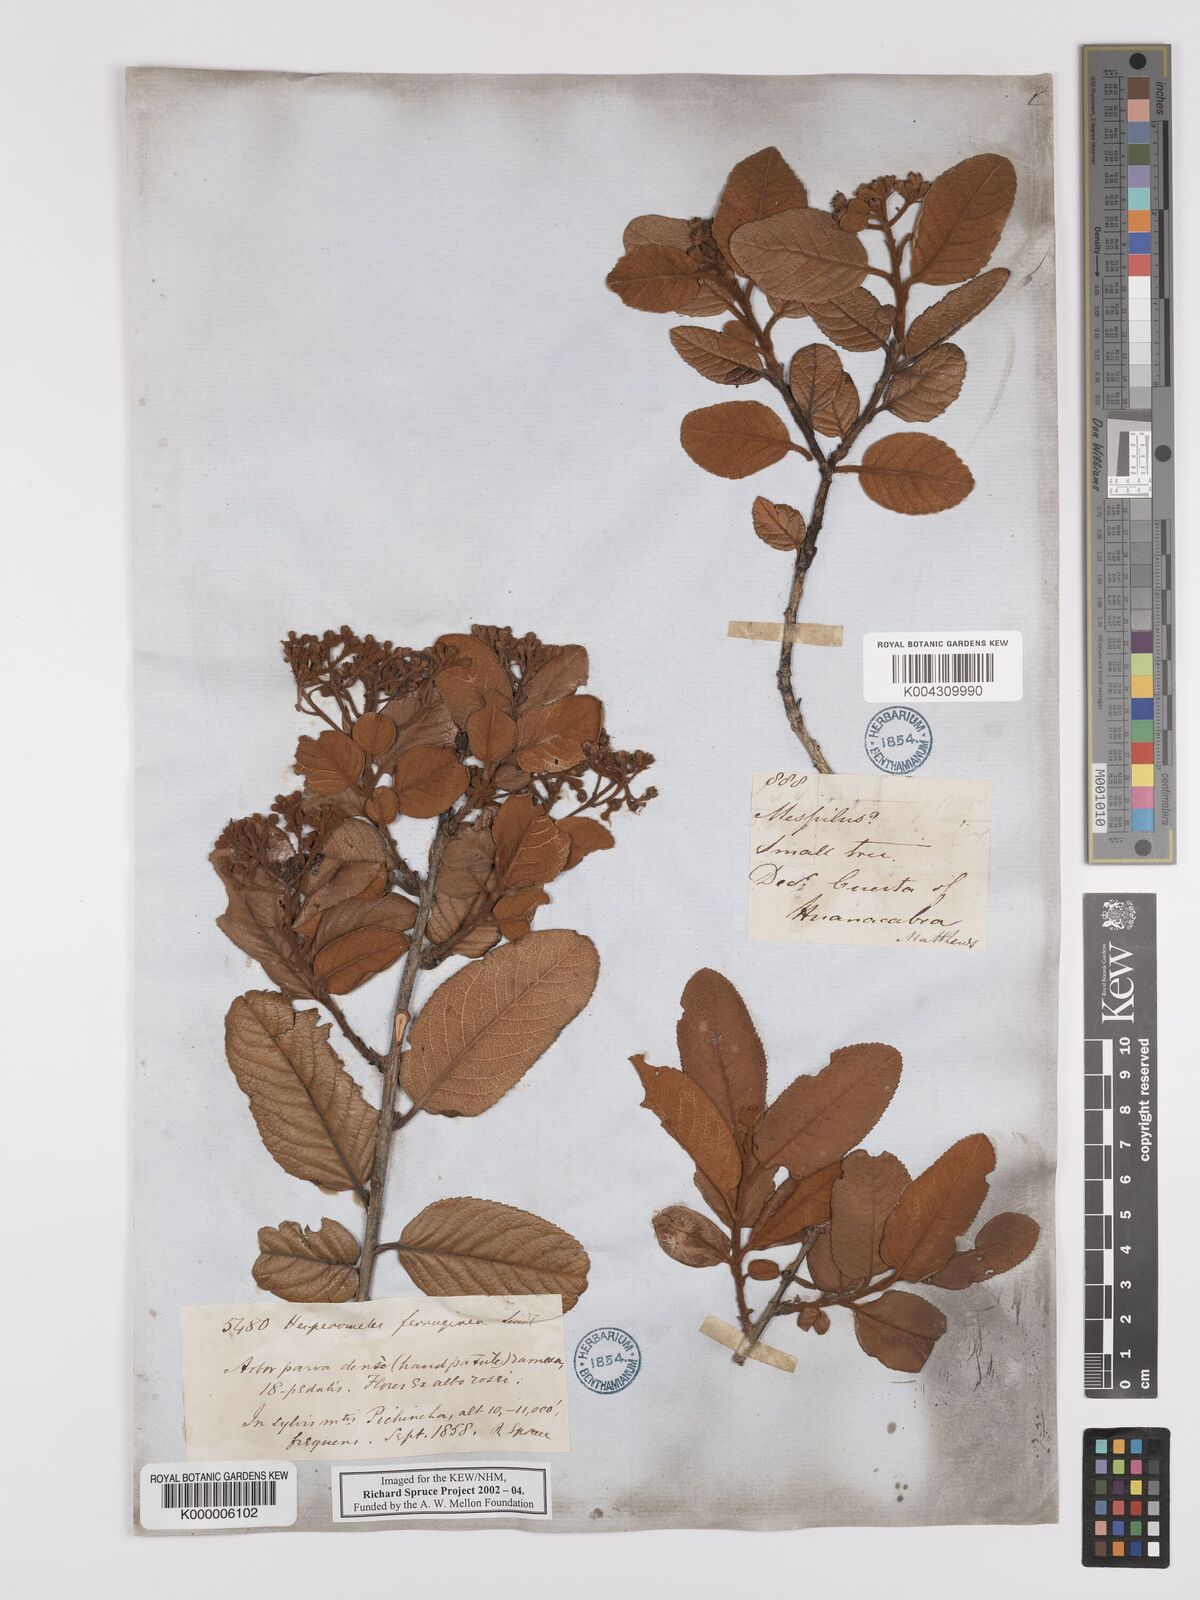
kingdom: Plantae
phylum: Tracheophyta
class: Magnoliopsida
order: Rosales
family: Rosaceae
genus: Hesperomeles
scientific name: Hesperomeles
